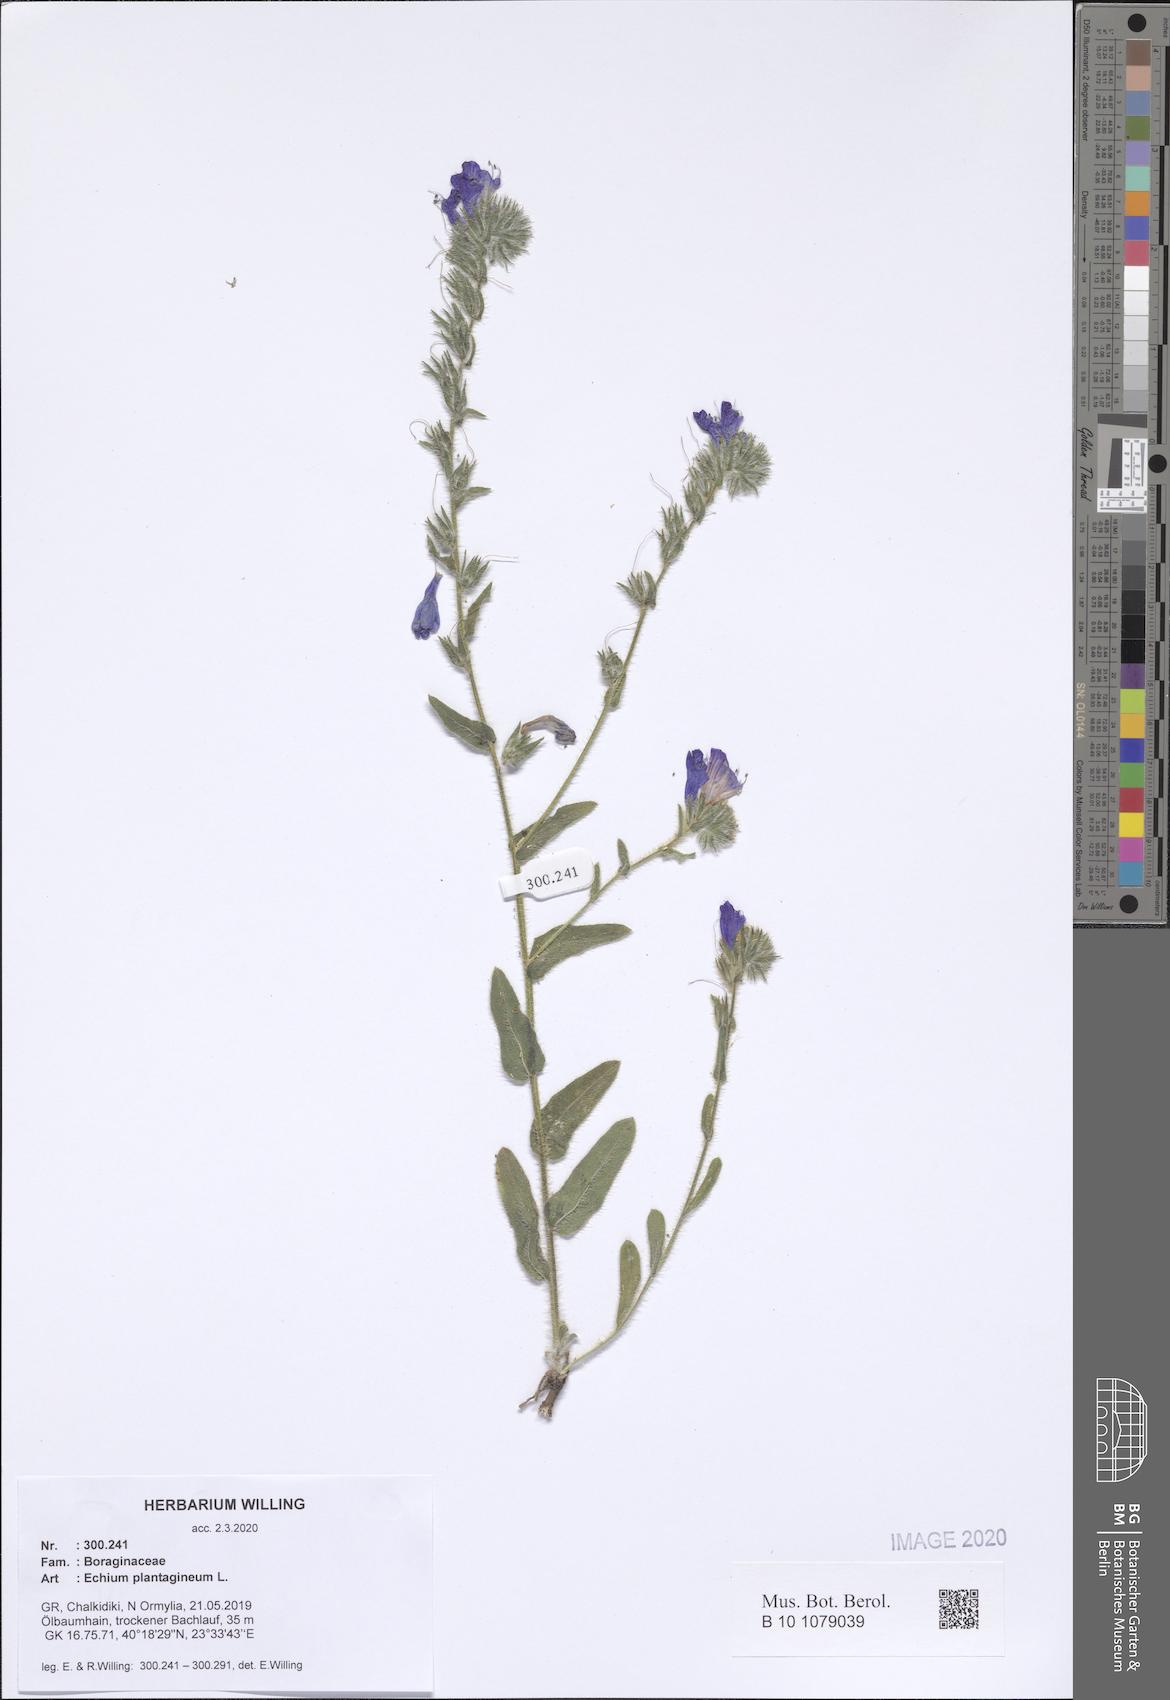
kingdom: Plantae
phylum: Tracheophyta
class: Magnoliopsida
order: Boraginales
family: Boraginaceae
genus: Echium
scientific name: Echium plantagineum
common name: Purple viper's-bugloss
